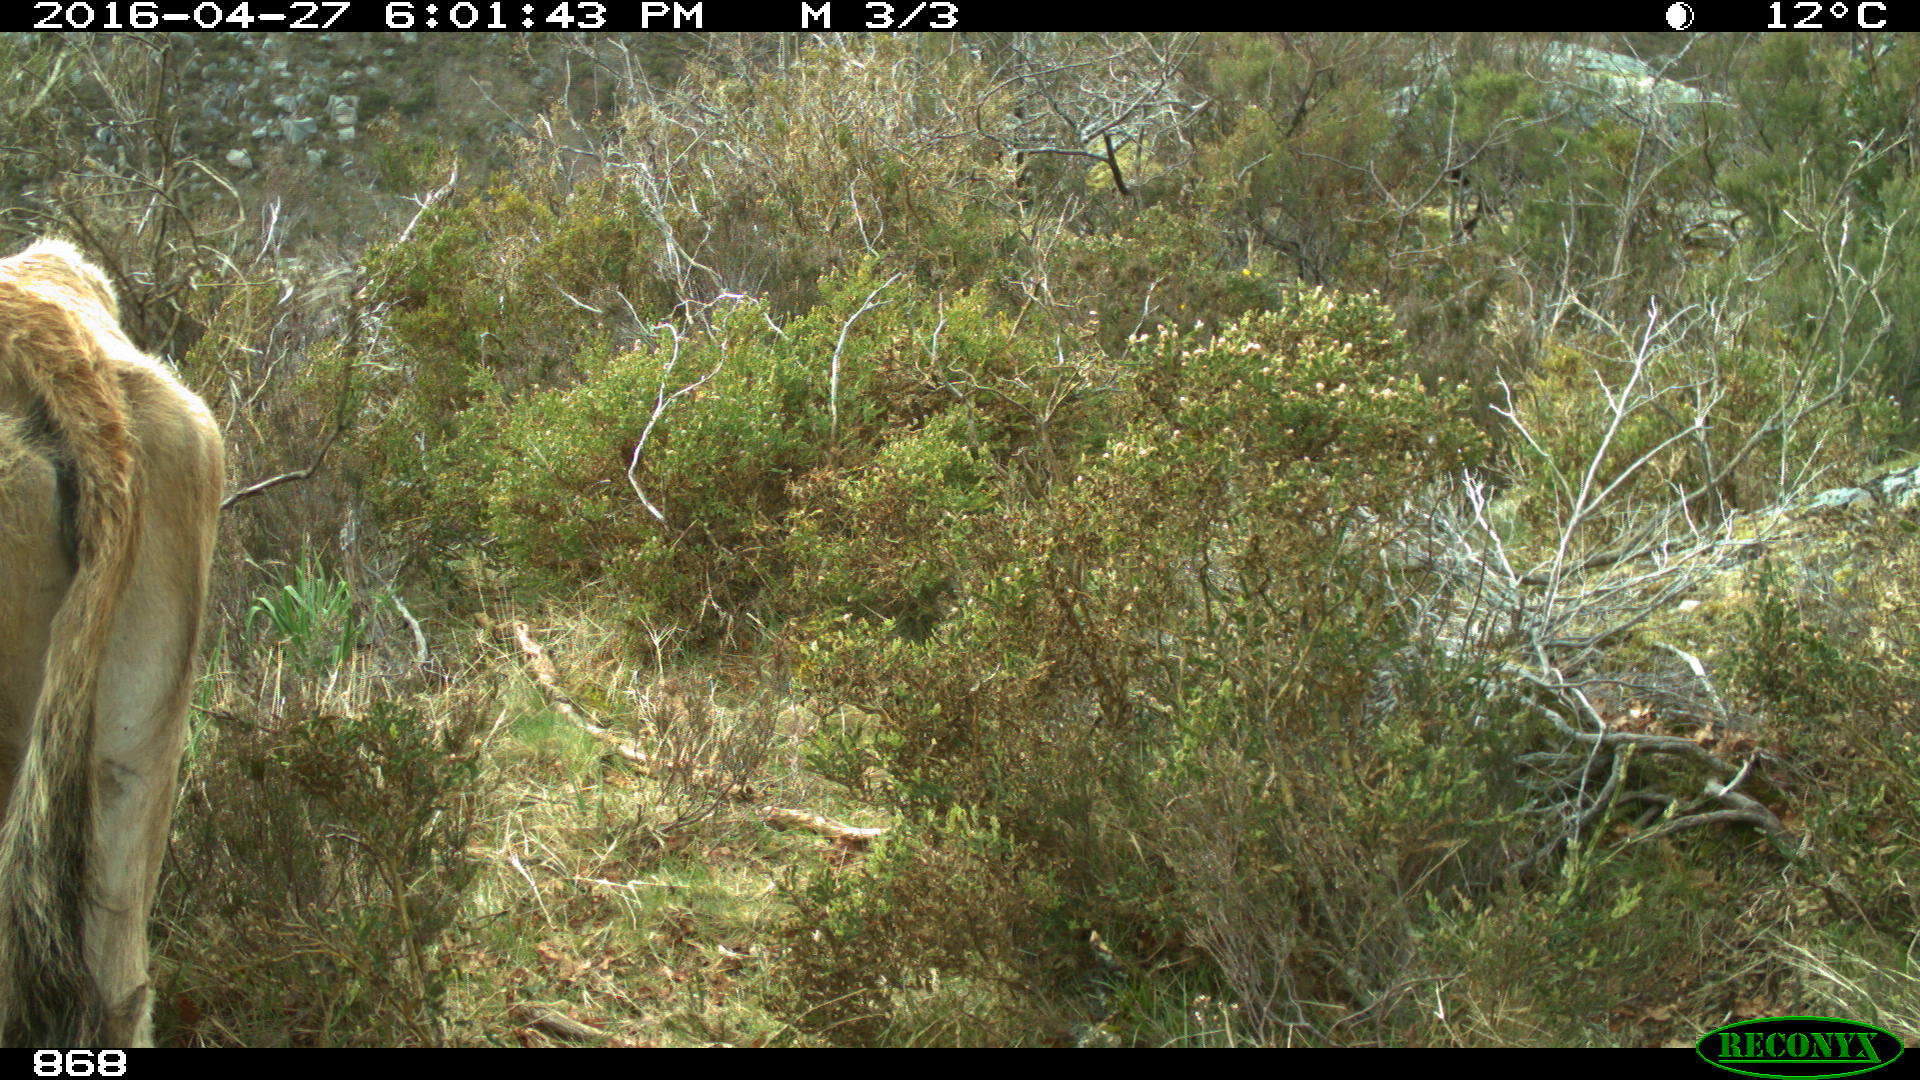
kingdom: Animalia
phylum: Chordata
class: Mammalia
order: Artiodactyla
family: Bovidae
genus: Bos
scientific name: Bos taurus
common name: Domesticated cattle
